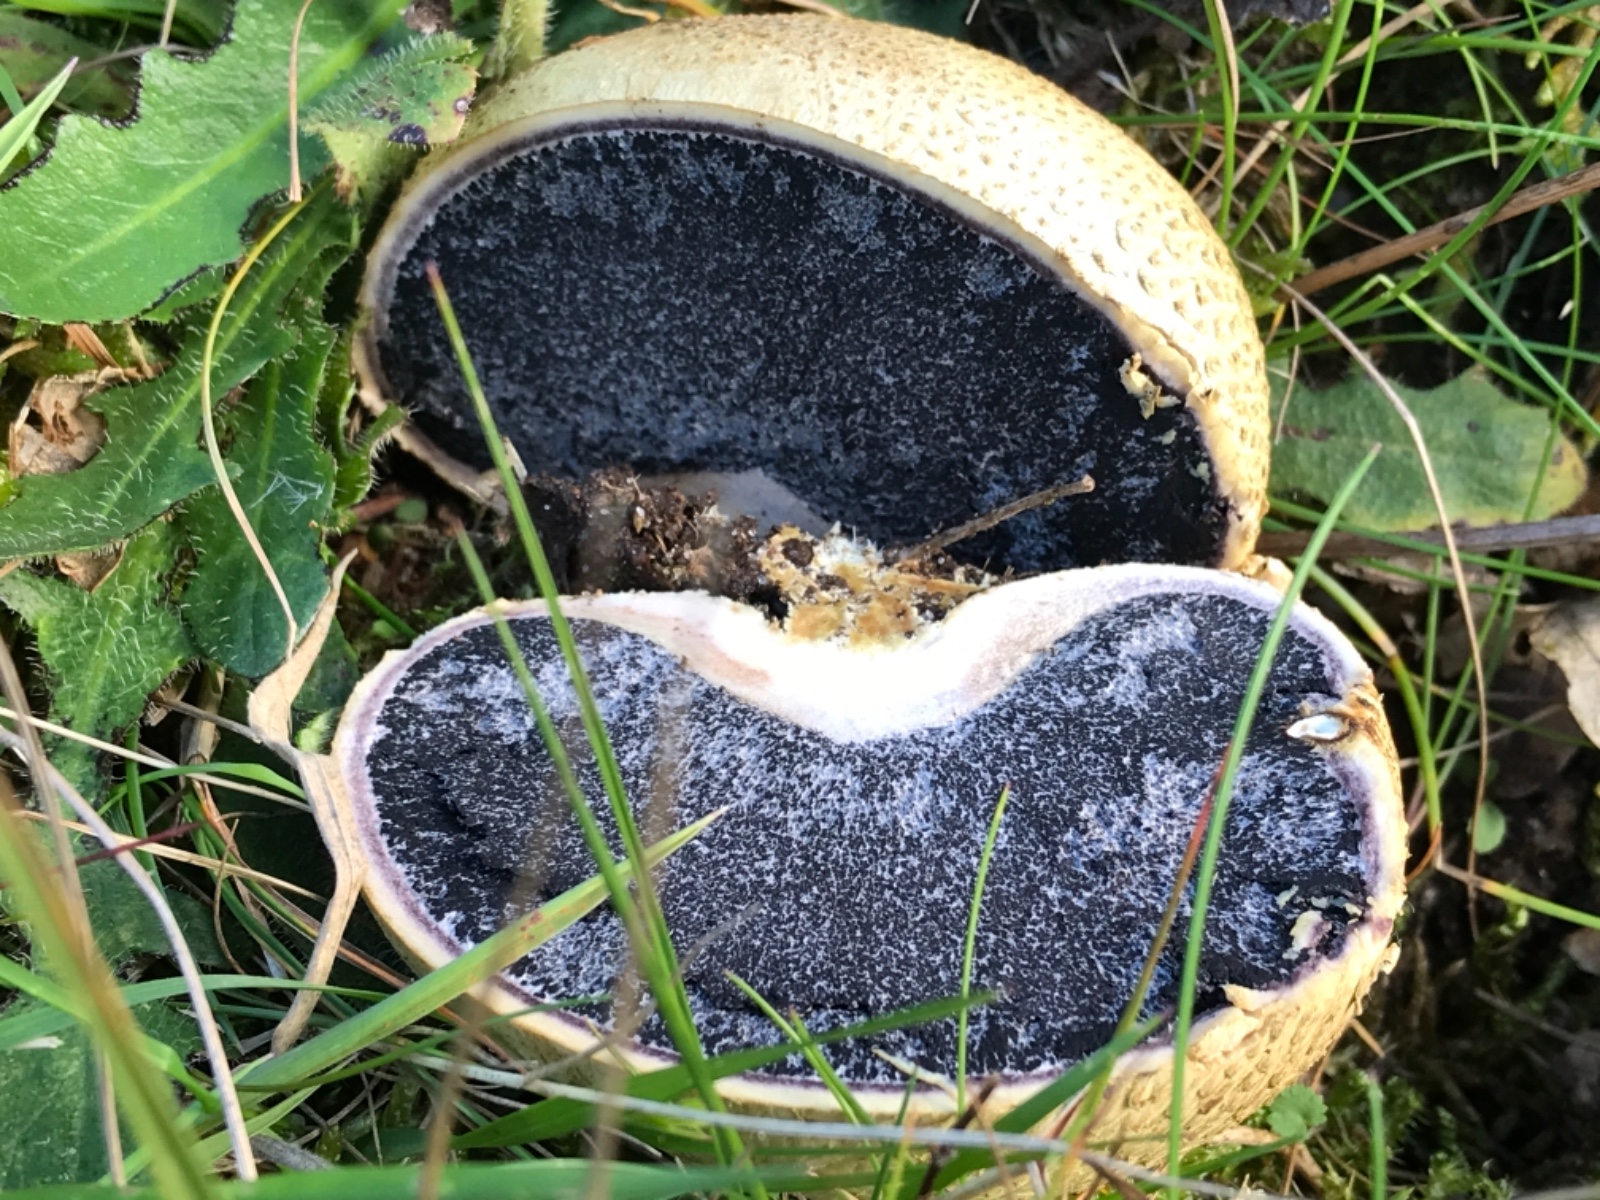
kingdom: Fungi
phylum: Basidiomycota
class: Agaricomycetes
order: Boletales
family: Sclerodermataceae
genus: Scleroderma
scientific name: Scleroderma citrinum
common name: almindelig bruskbold
